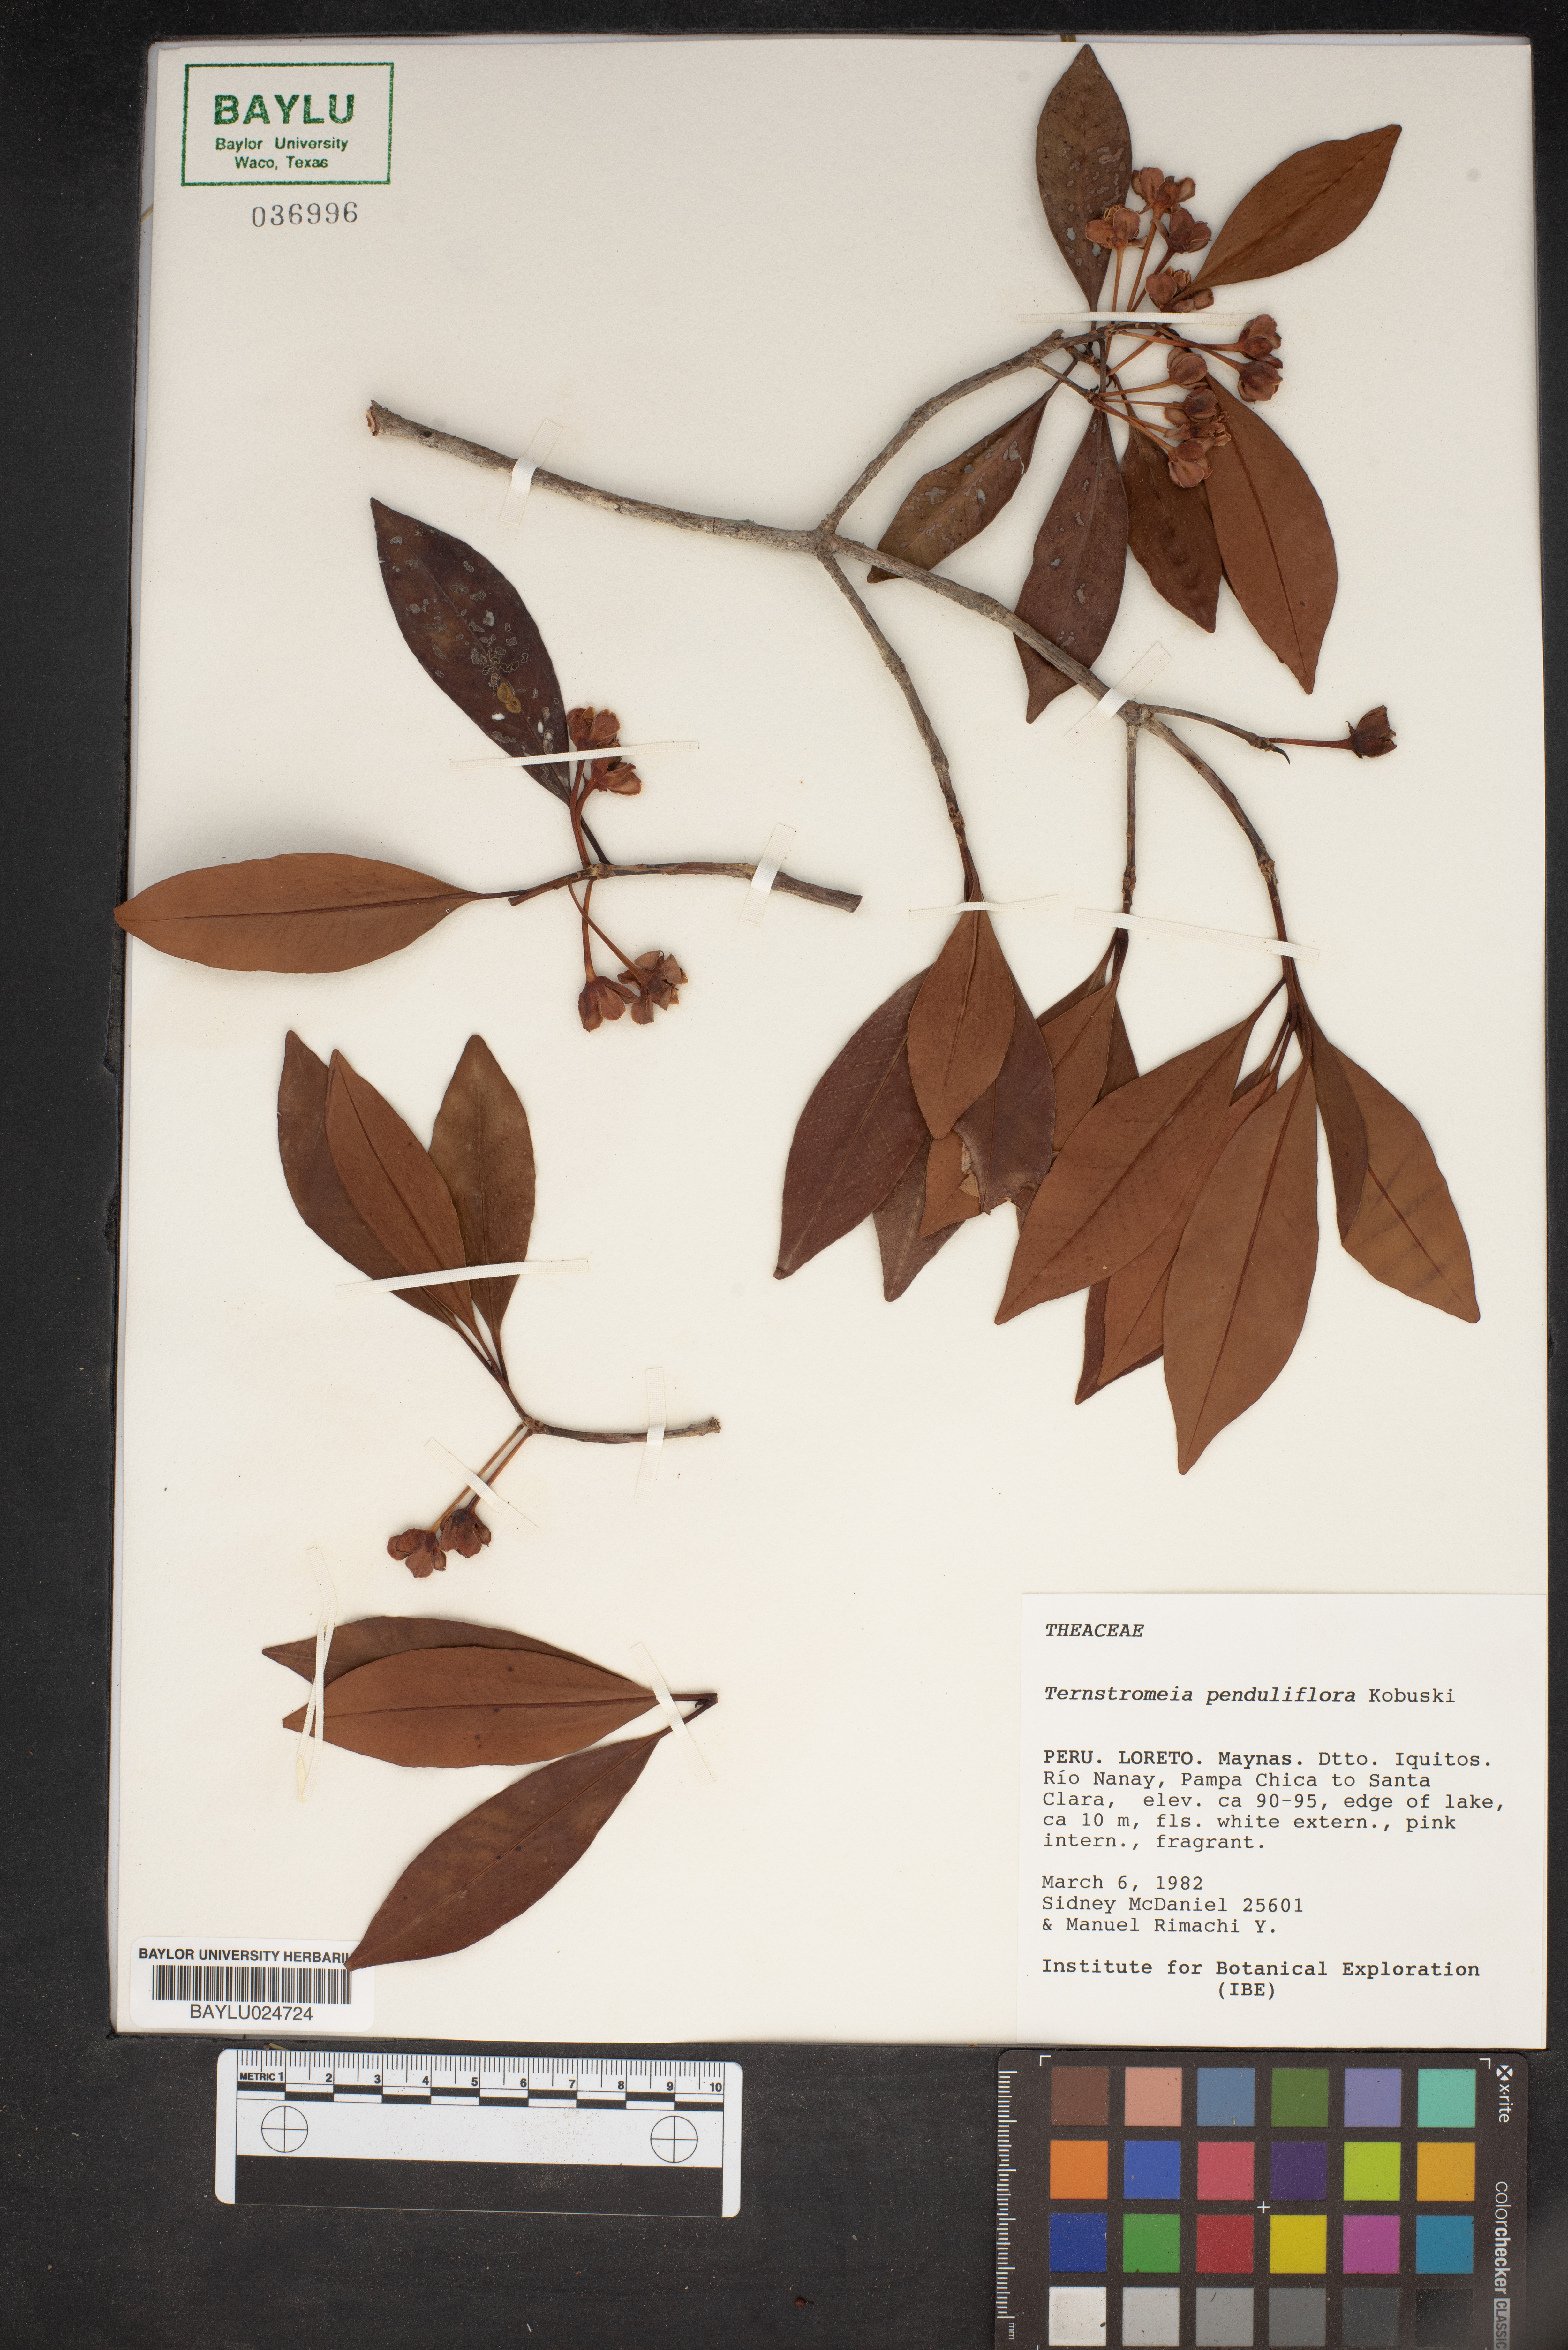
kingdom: Plantae
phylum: Tracheophyta
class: Magnoliopsida
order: Ericales
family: Pentaphylacaceae
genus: Ternstroemia
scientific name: Ternstroemia penduliflora
